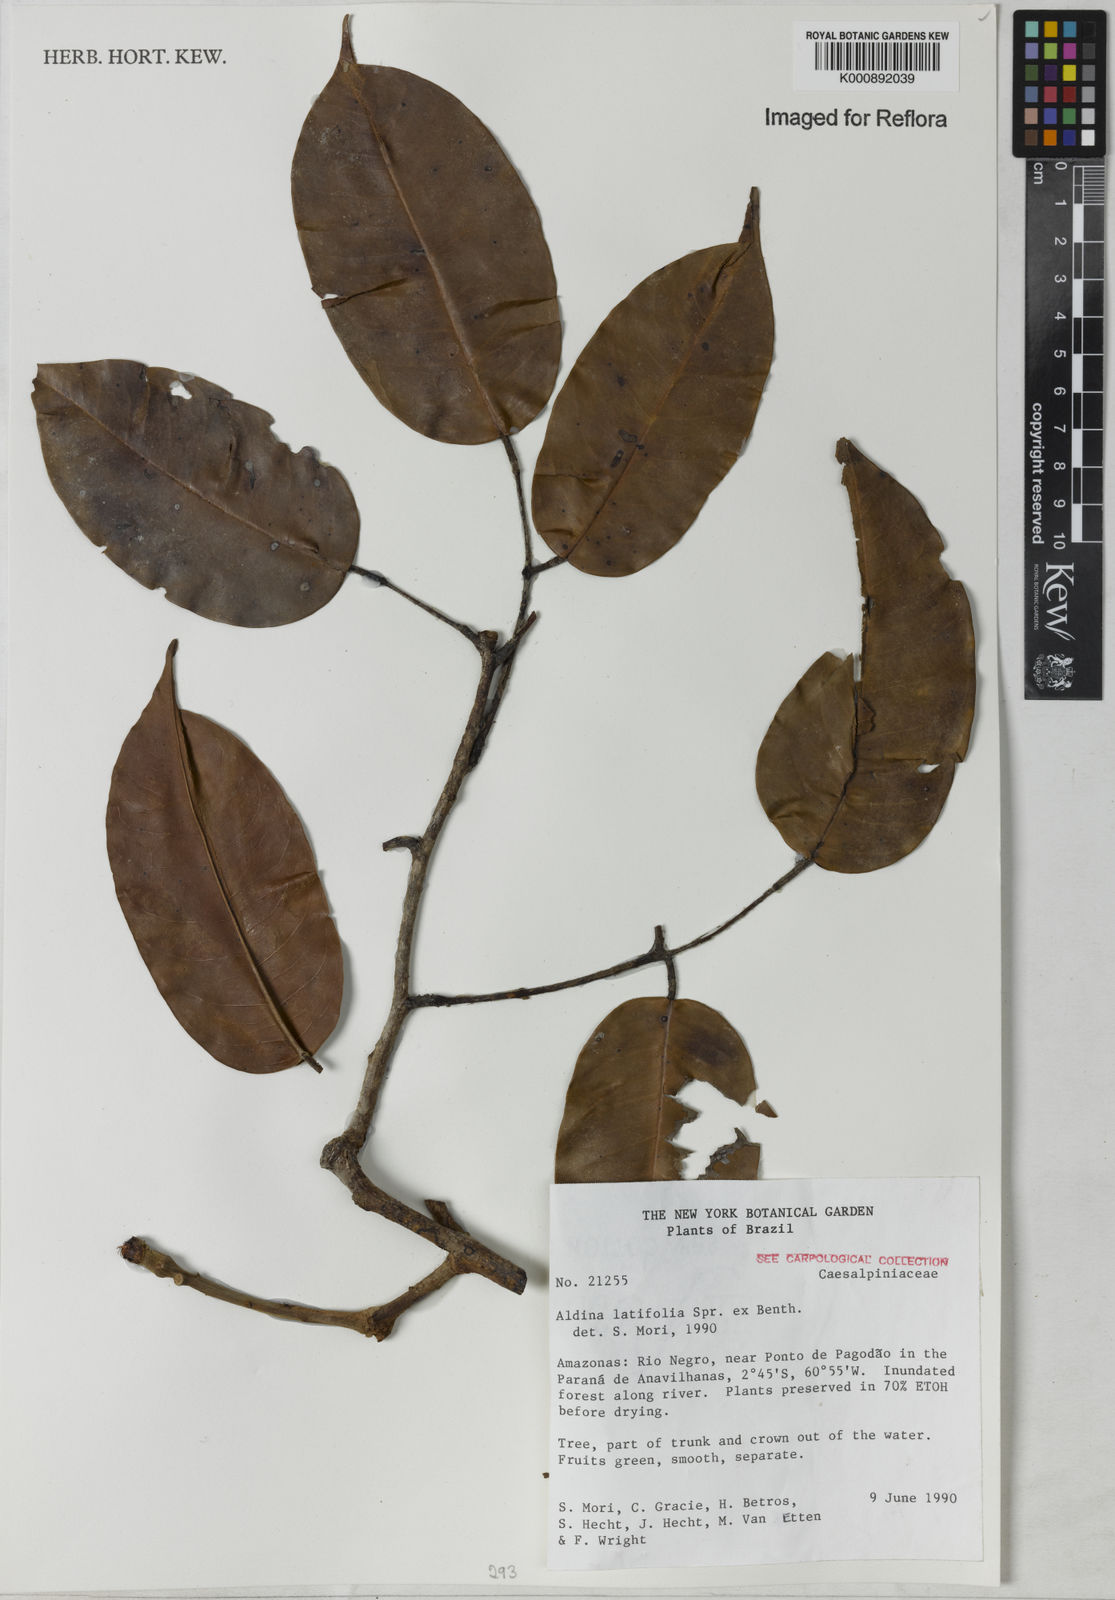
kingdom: Plantae
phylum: Tracheophyta
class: Magnoliopsida
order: Fabales
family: Fabaceae
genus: Aldina
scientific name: Aldina latifolia
